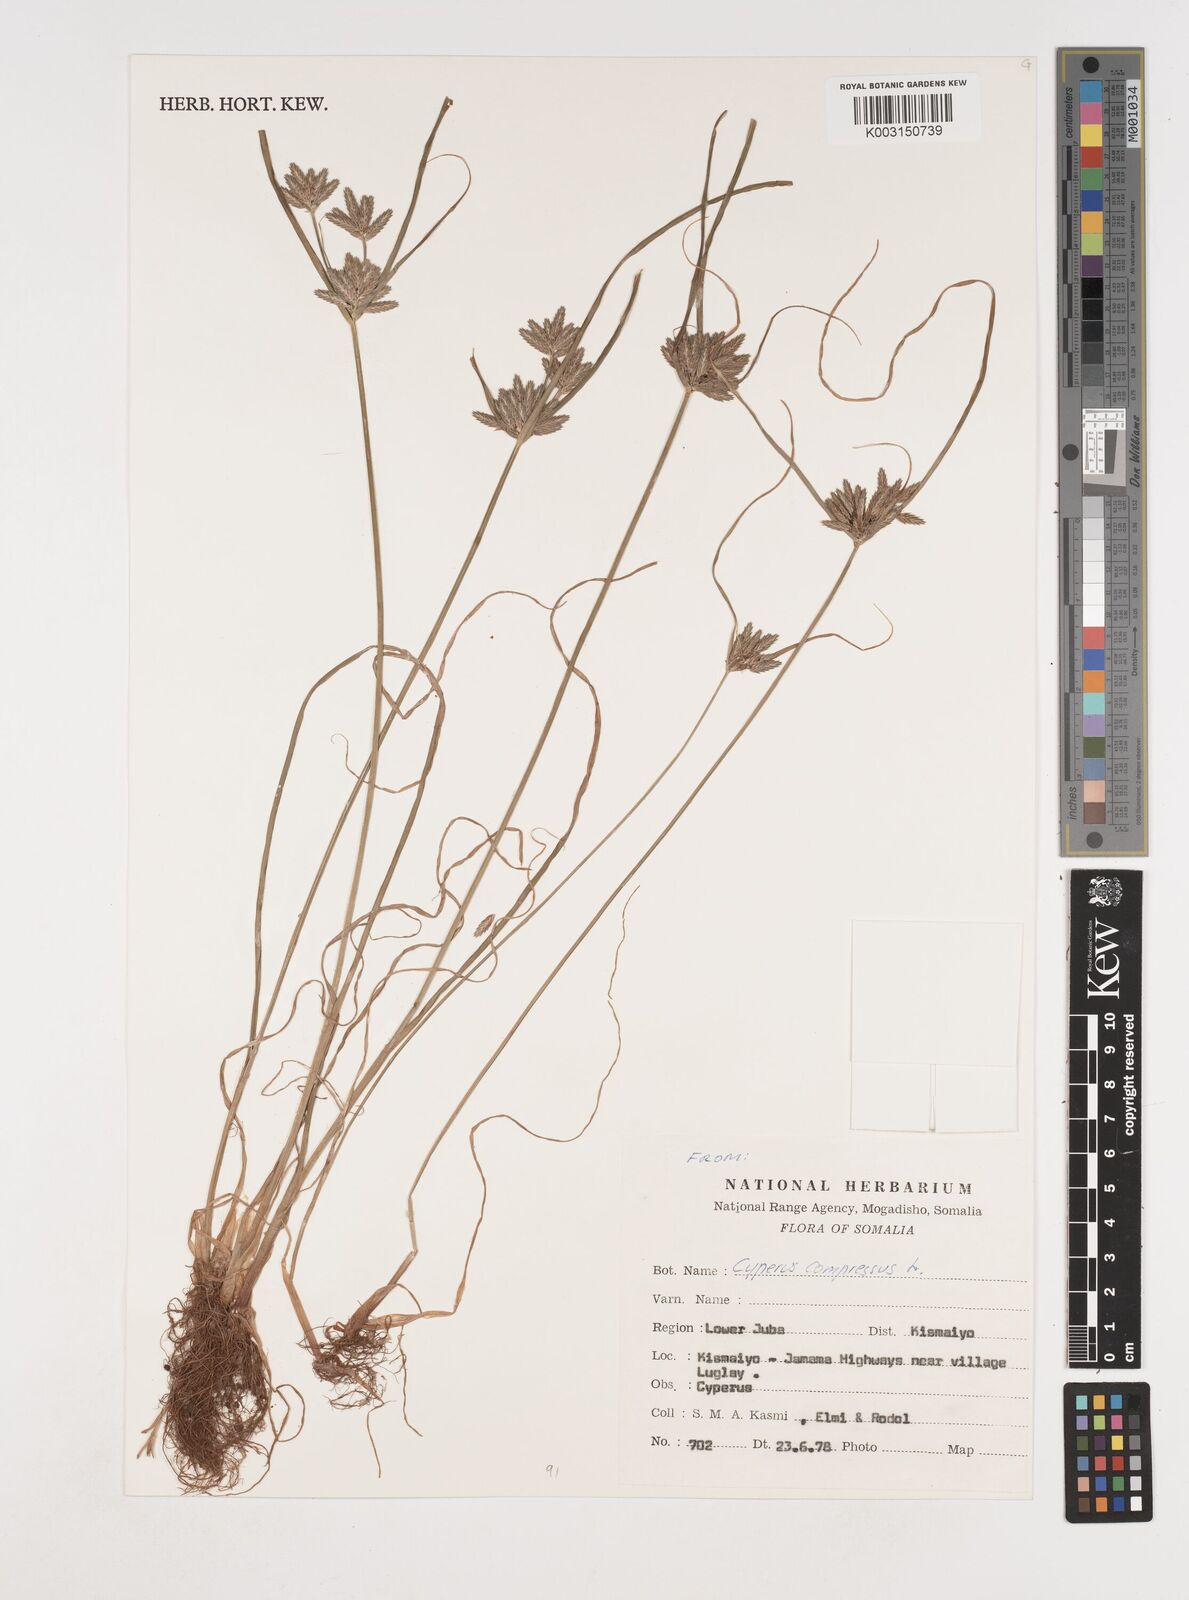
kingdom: Plantae
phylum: Tracheophyta
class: Liliopsida
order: Poales
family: Cyperaceae
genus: Cyperus
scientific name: Cyperus compressus
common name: Poorland flatsedge
